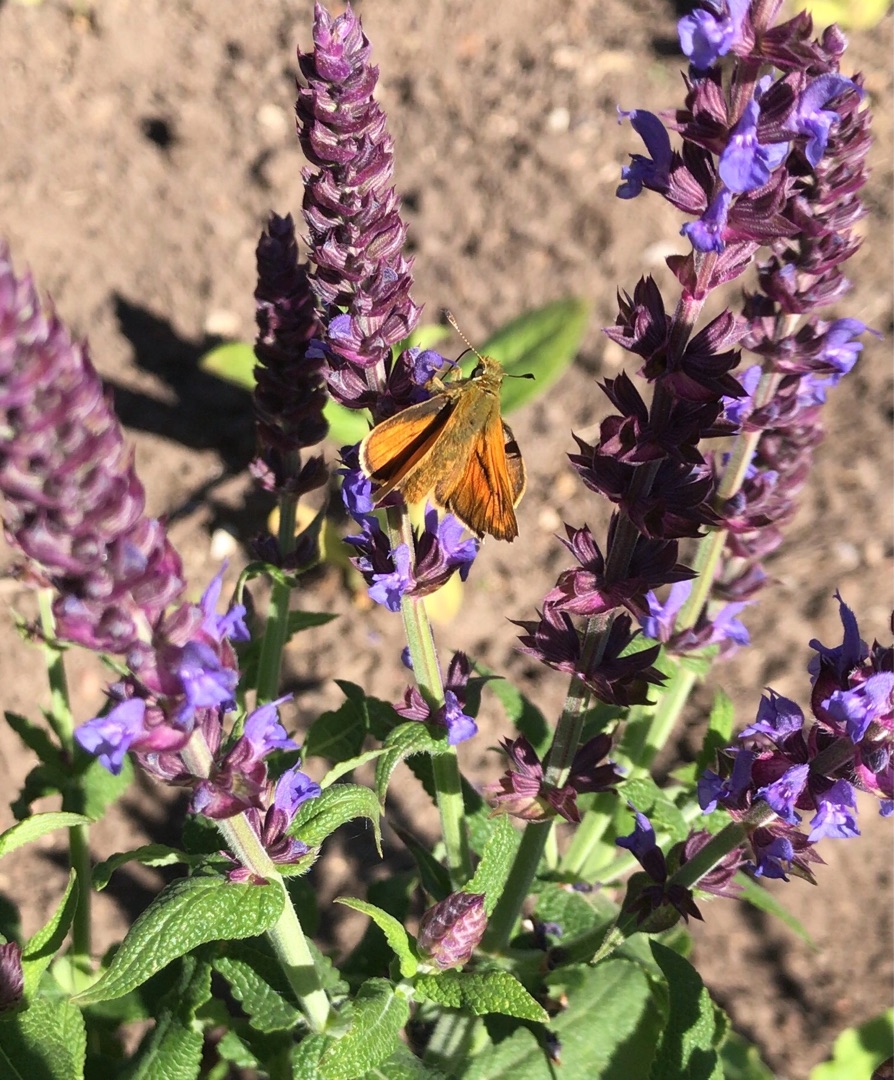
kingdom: Animalia
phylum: Arthropoda
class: Insecta
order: Lepidoptera
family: Hesperiidae
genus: Ochlodes
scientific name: Ochlodes venata
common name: Stor bredpande
